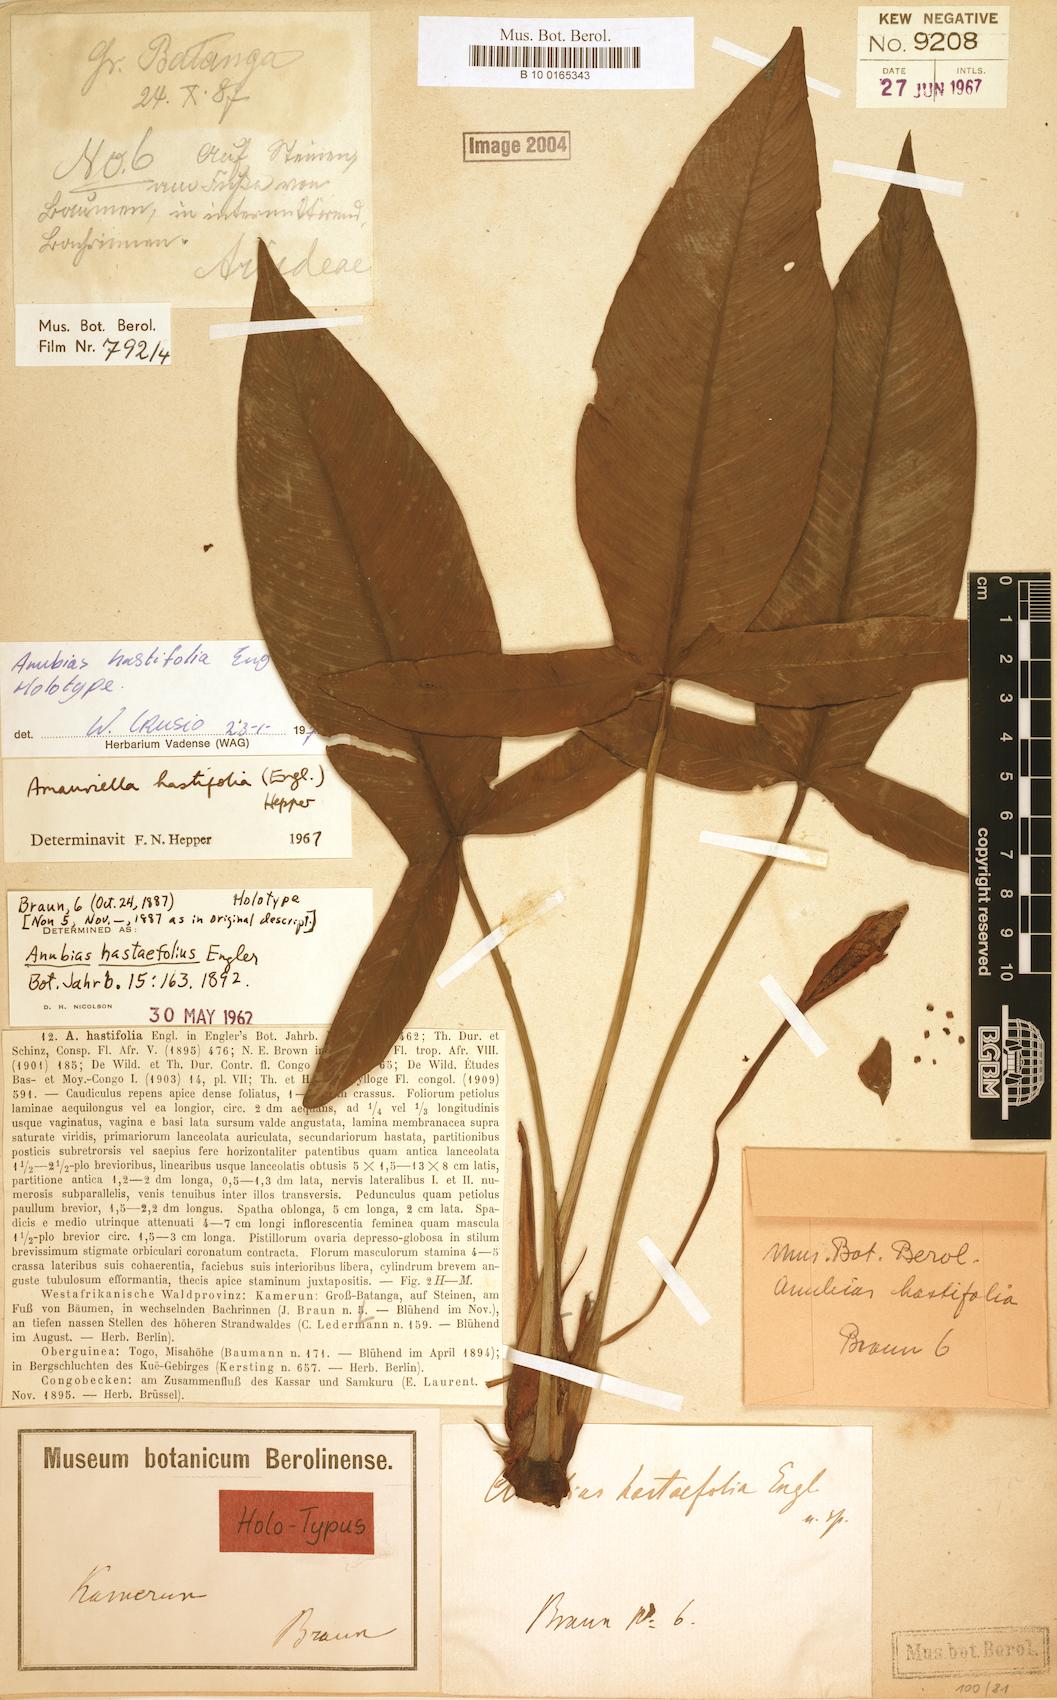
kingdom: Plantae
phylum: Tracheophyta
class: Liliopsida
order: Alismatales
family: Araceae
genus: Anubias
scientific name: Anubias hastifolia
